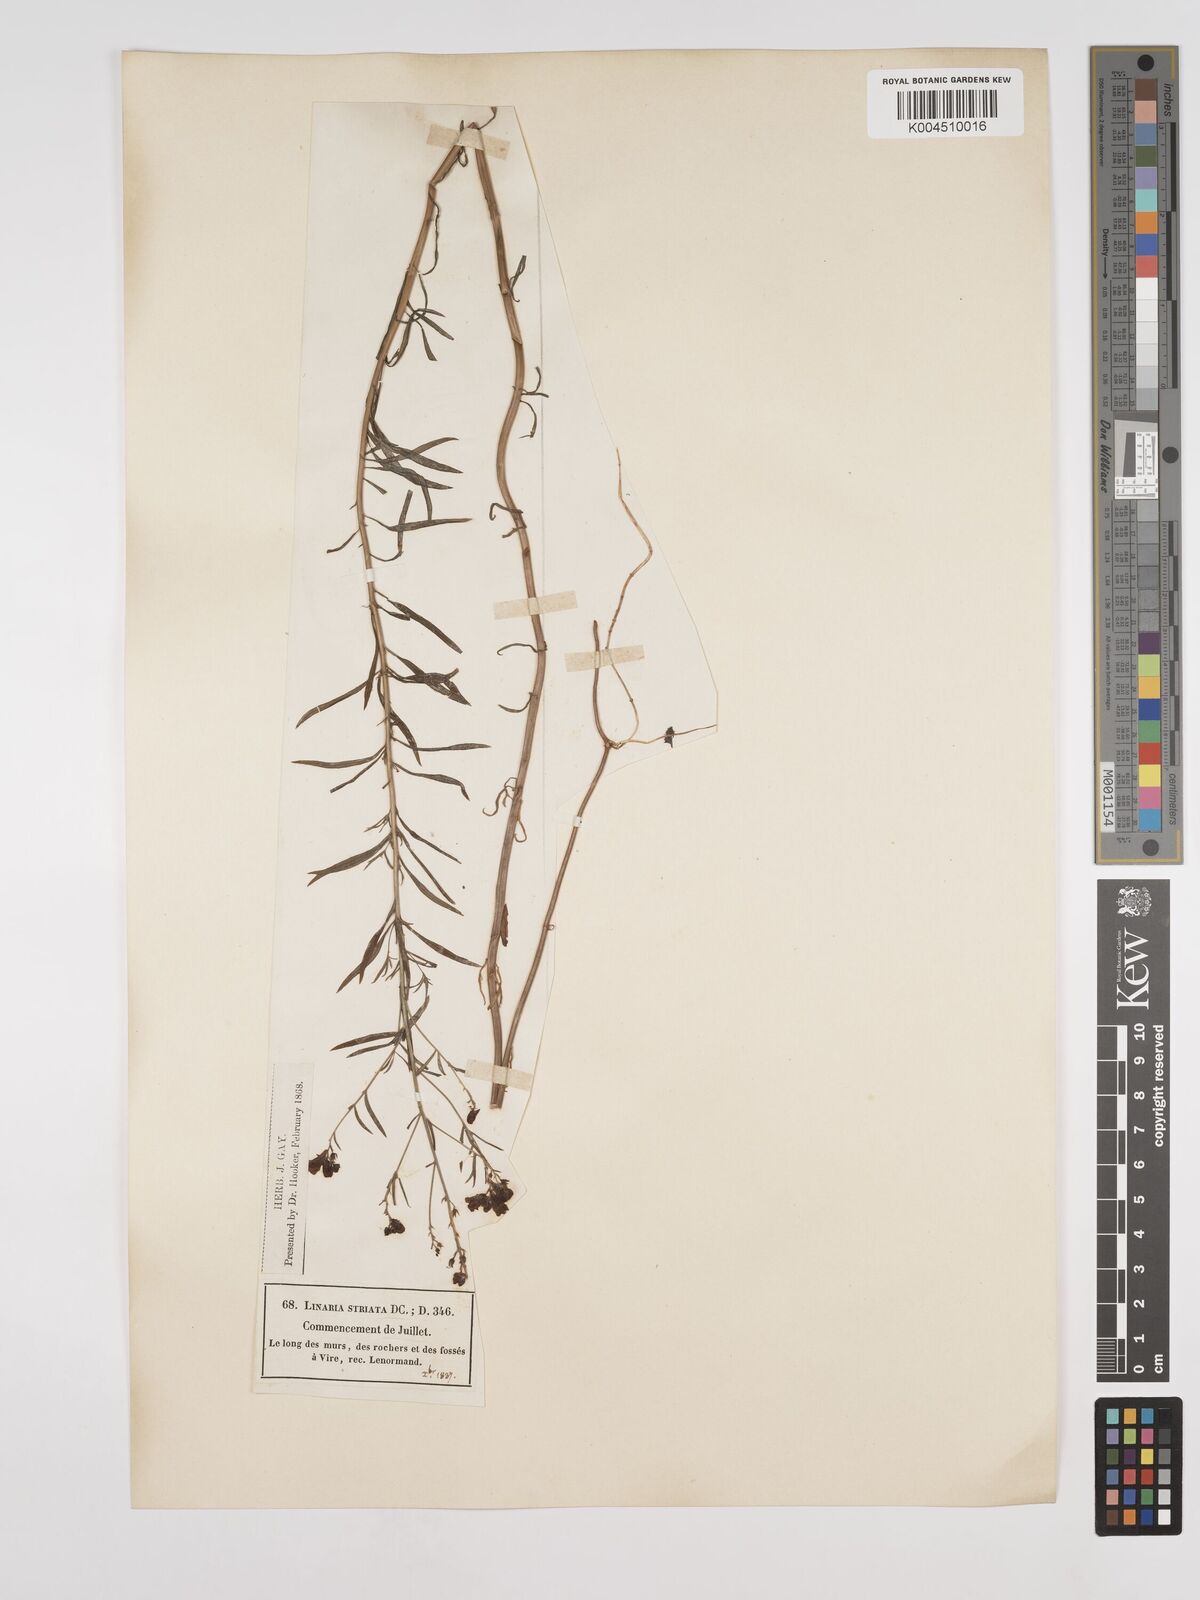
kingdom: Plantae
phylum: Tracheophyta
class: Magnoliopsida
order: Lamiales
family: Plantaginaceae
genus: Linaria
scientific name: Linaria repens
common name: Pale toadflax
